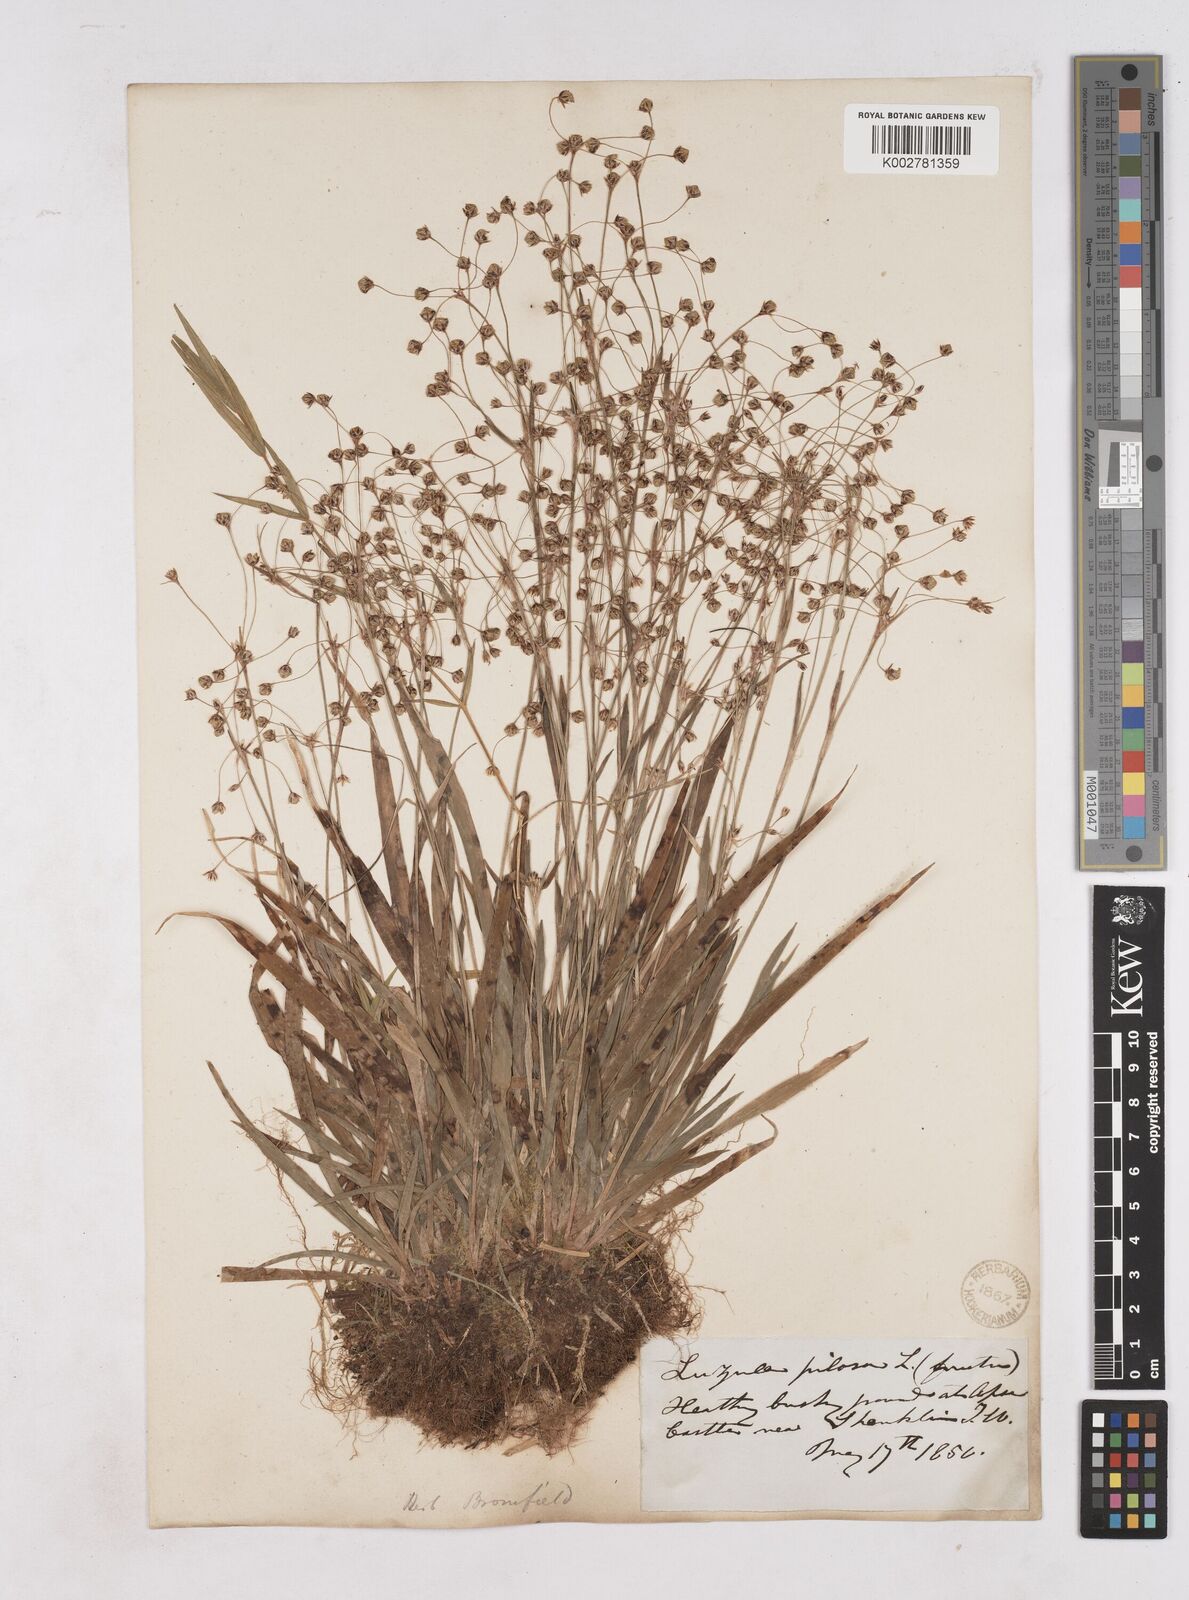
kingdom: Plantae
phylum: Tracheophyta
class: Liliopsida
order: Poales
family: Juncaceae
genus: Luzula
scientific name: Luzula pilosa
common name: Hairy wood-rush
